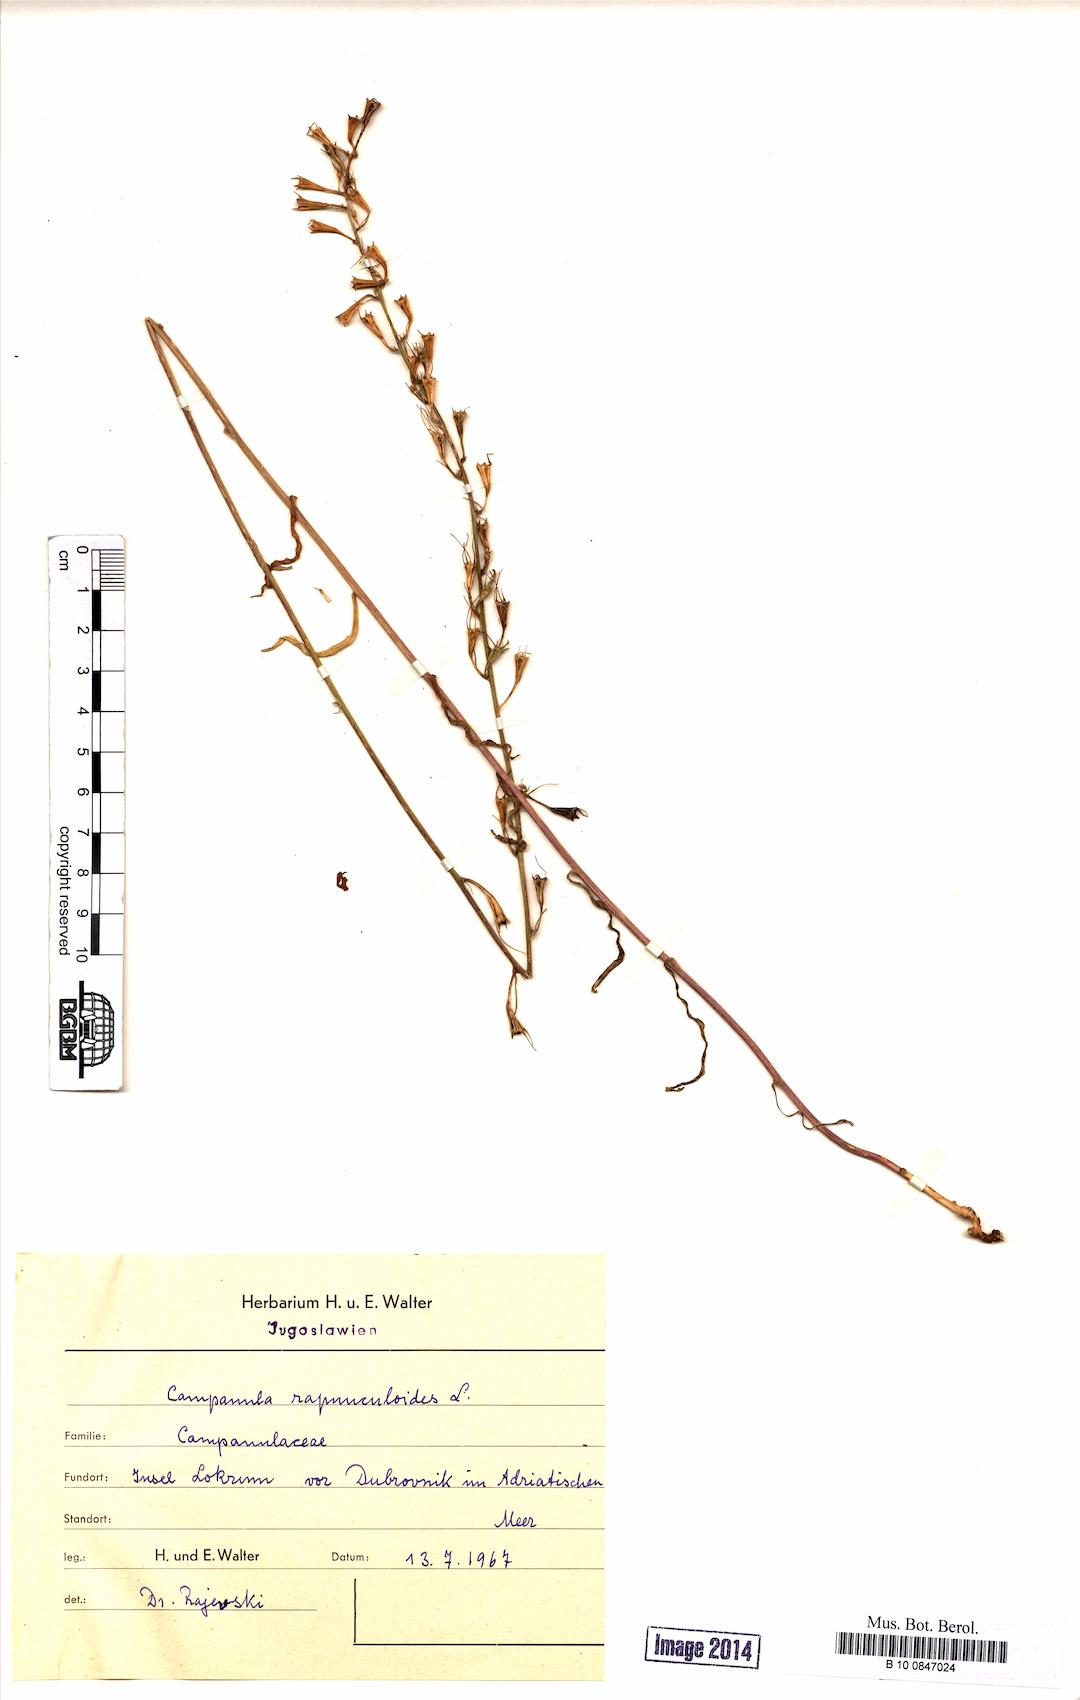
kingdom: Plantae
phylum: Tracheophyta
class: Magnoliopsida
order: Asterales
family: Campanulaceae
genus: Campanula
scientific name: Campanula rapunculoides
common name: Creeping bellflower
